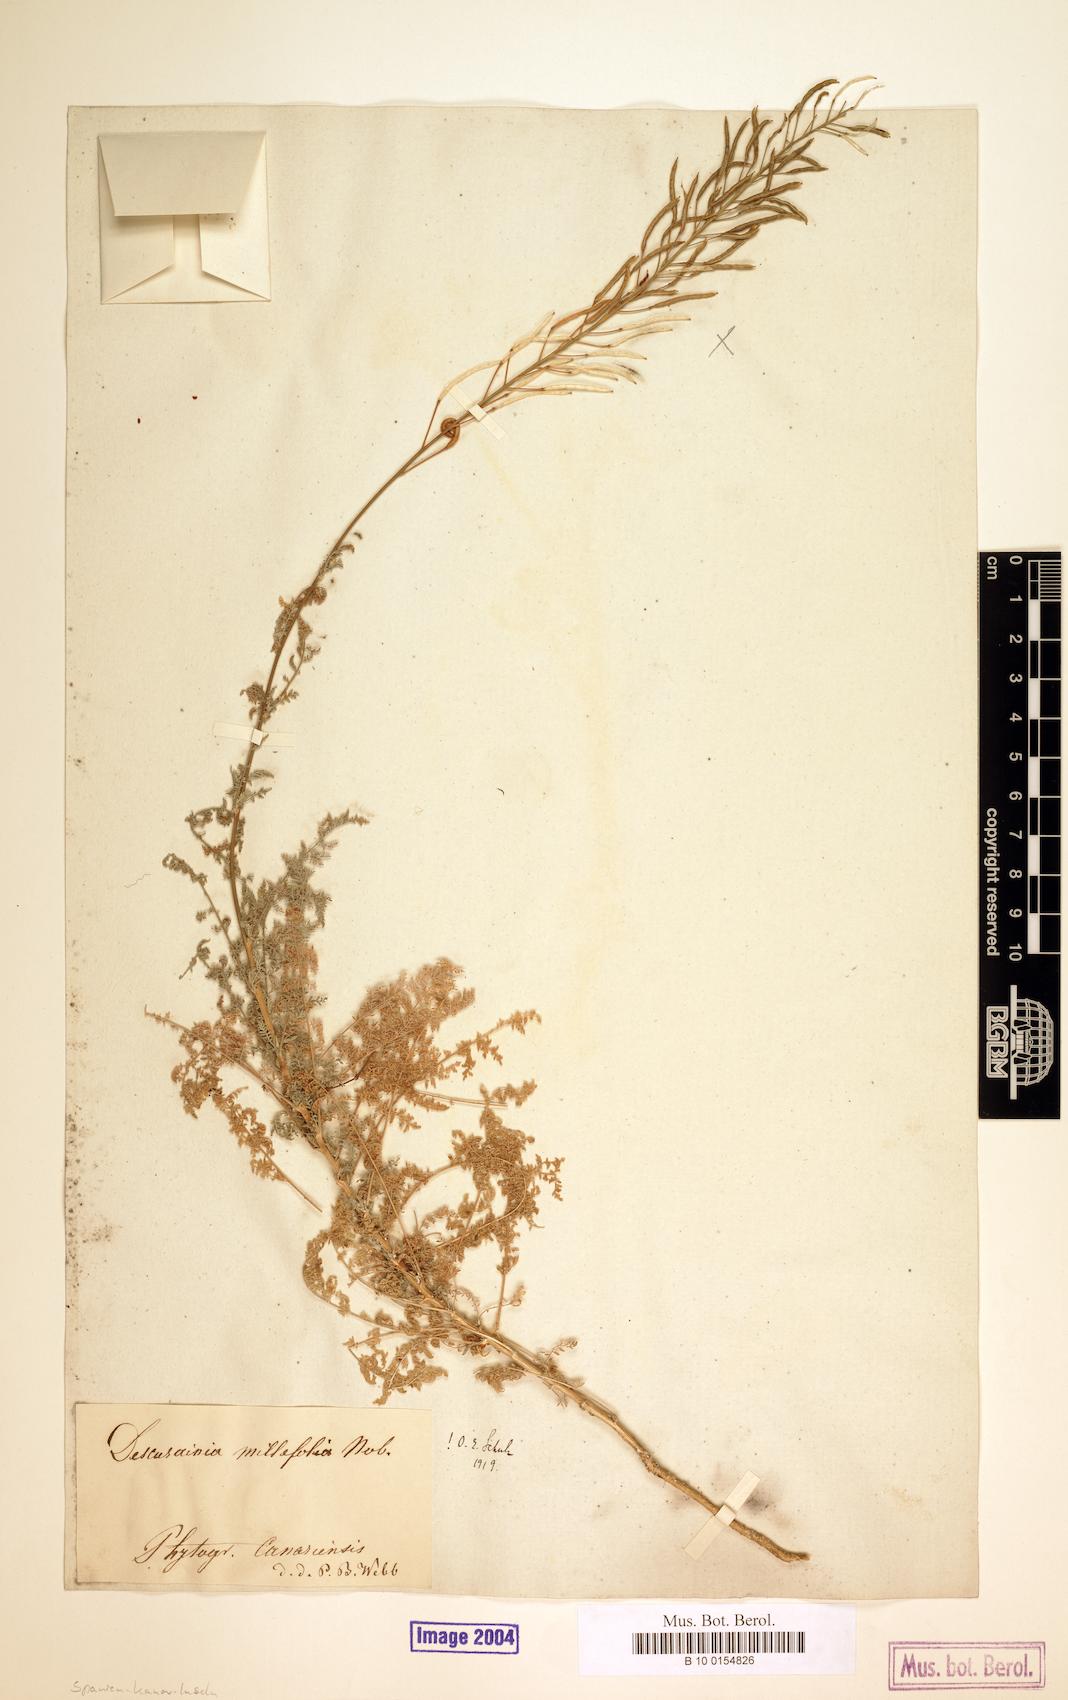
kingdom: Plantae
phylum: Tracheophyta
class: Magnoliopsida
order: Brassicales
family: Brassicaceae
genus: Descurainia
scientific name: Descurainia millefolia
